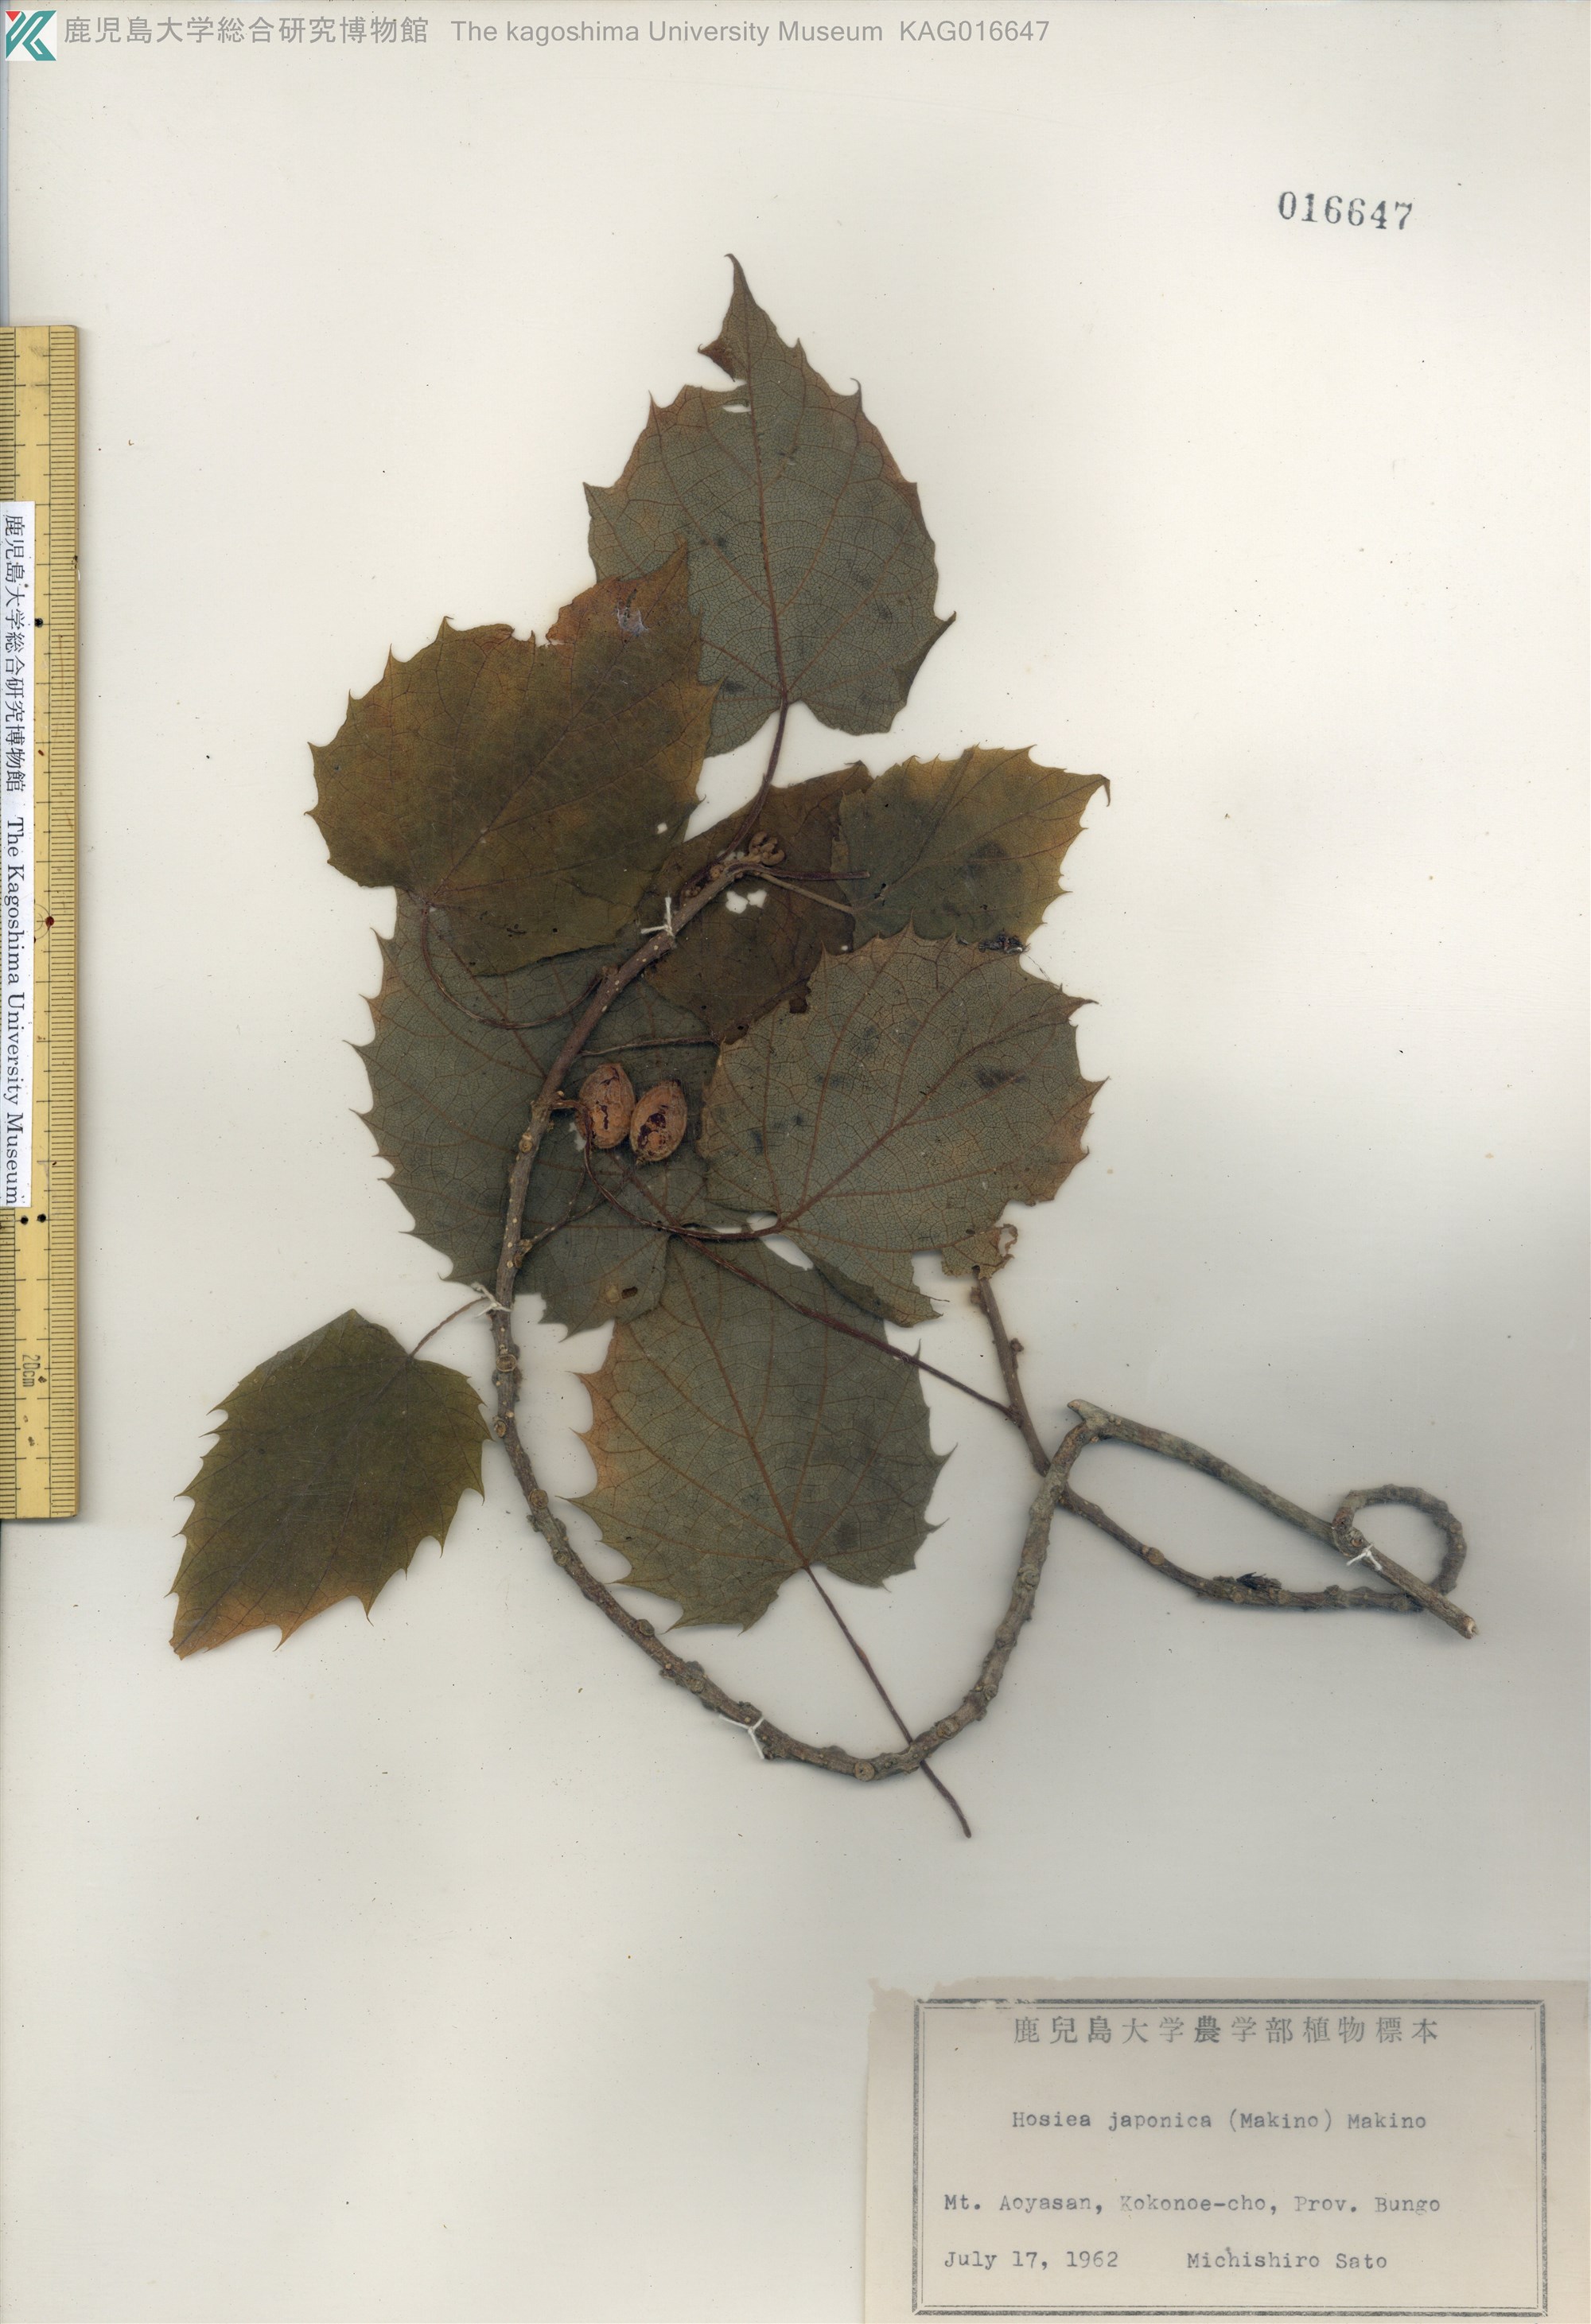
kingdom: Plantae
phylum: Tracheophyta
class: Magnoliopsida
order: Icacinales
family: Icacinaceae
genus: Hosiea
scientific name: Hosiea japonica
